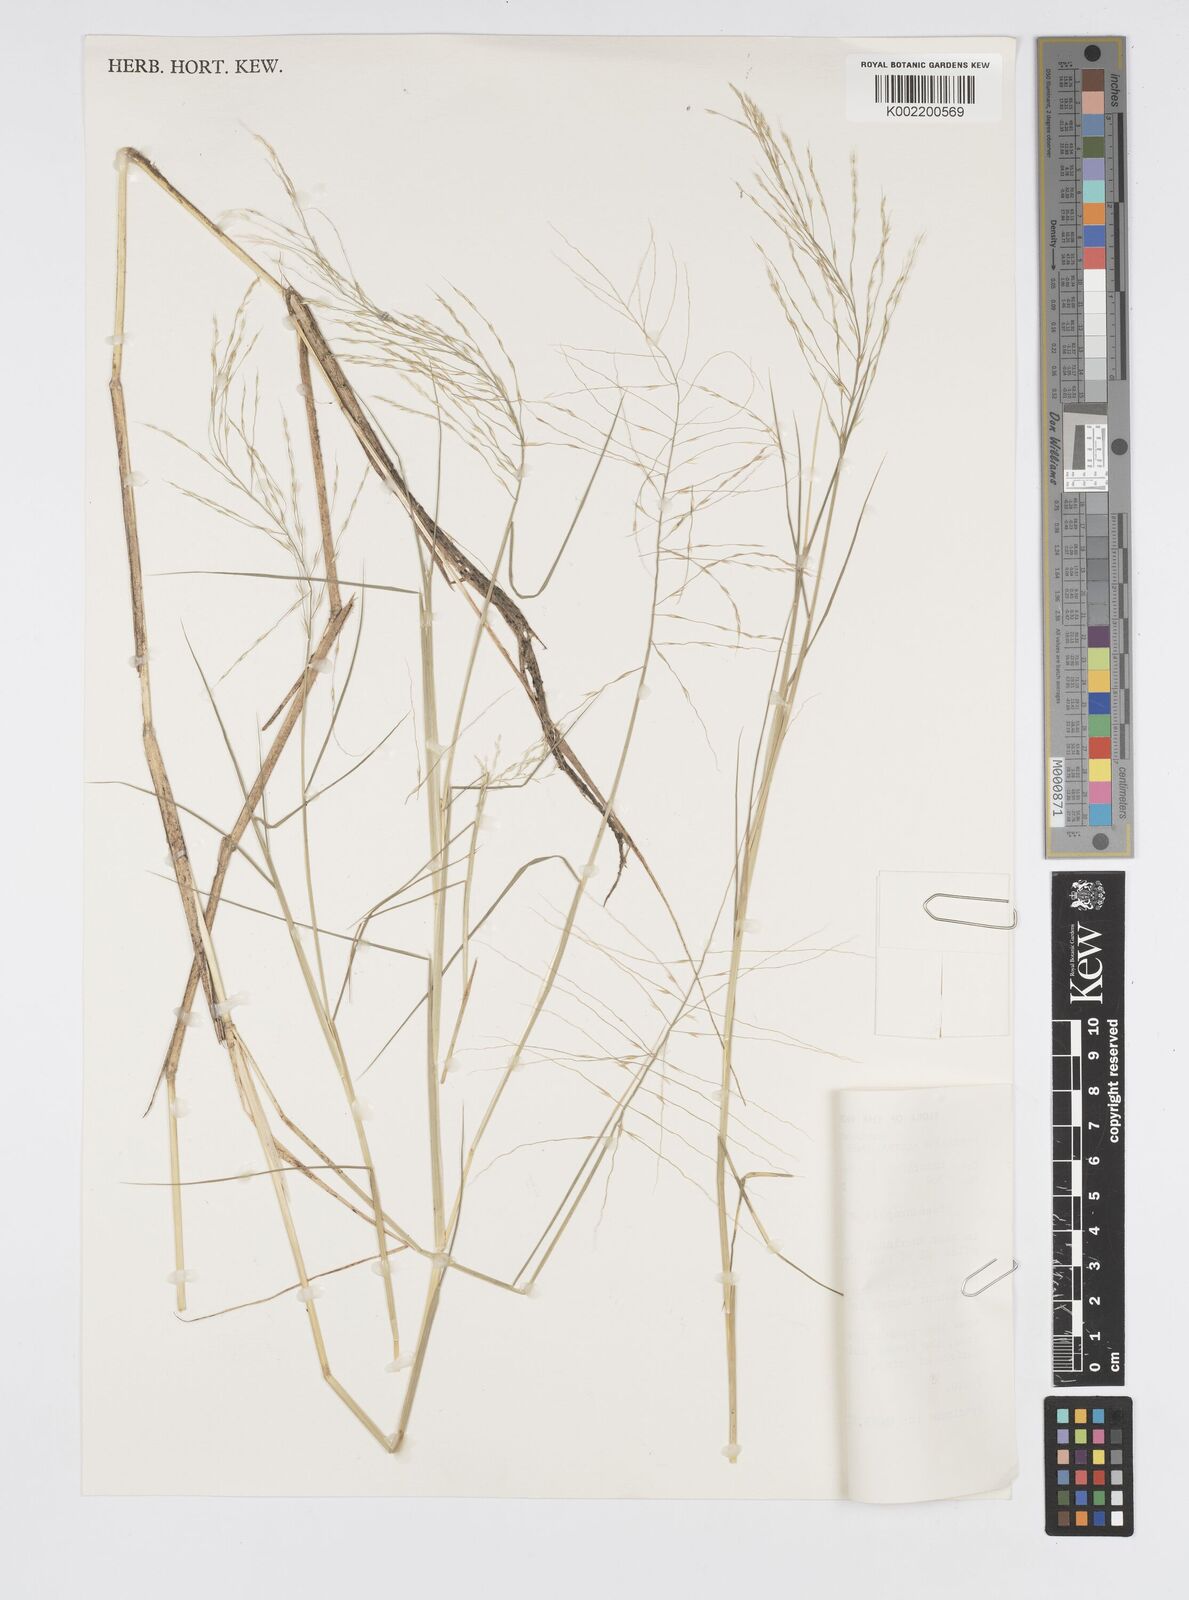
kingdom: Plantae
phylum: Tracheophyta
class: Liliopsida
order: Poales
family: Poaceae
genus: Pseudoraphis
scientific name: Pseudoraphis spinescens
